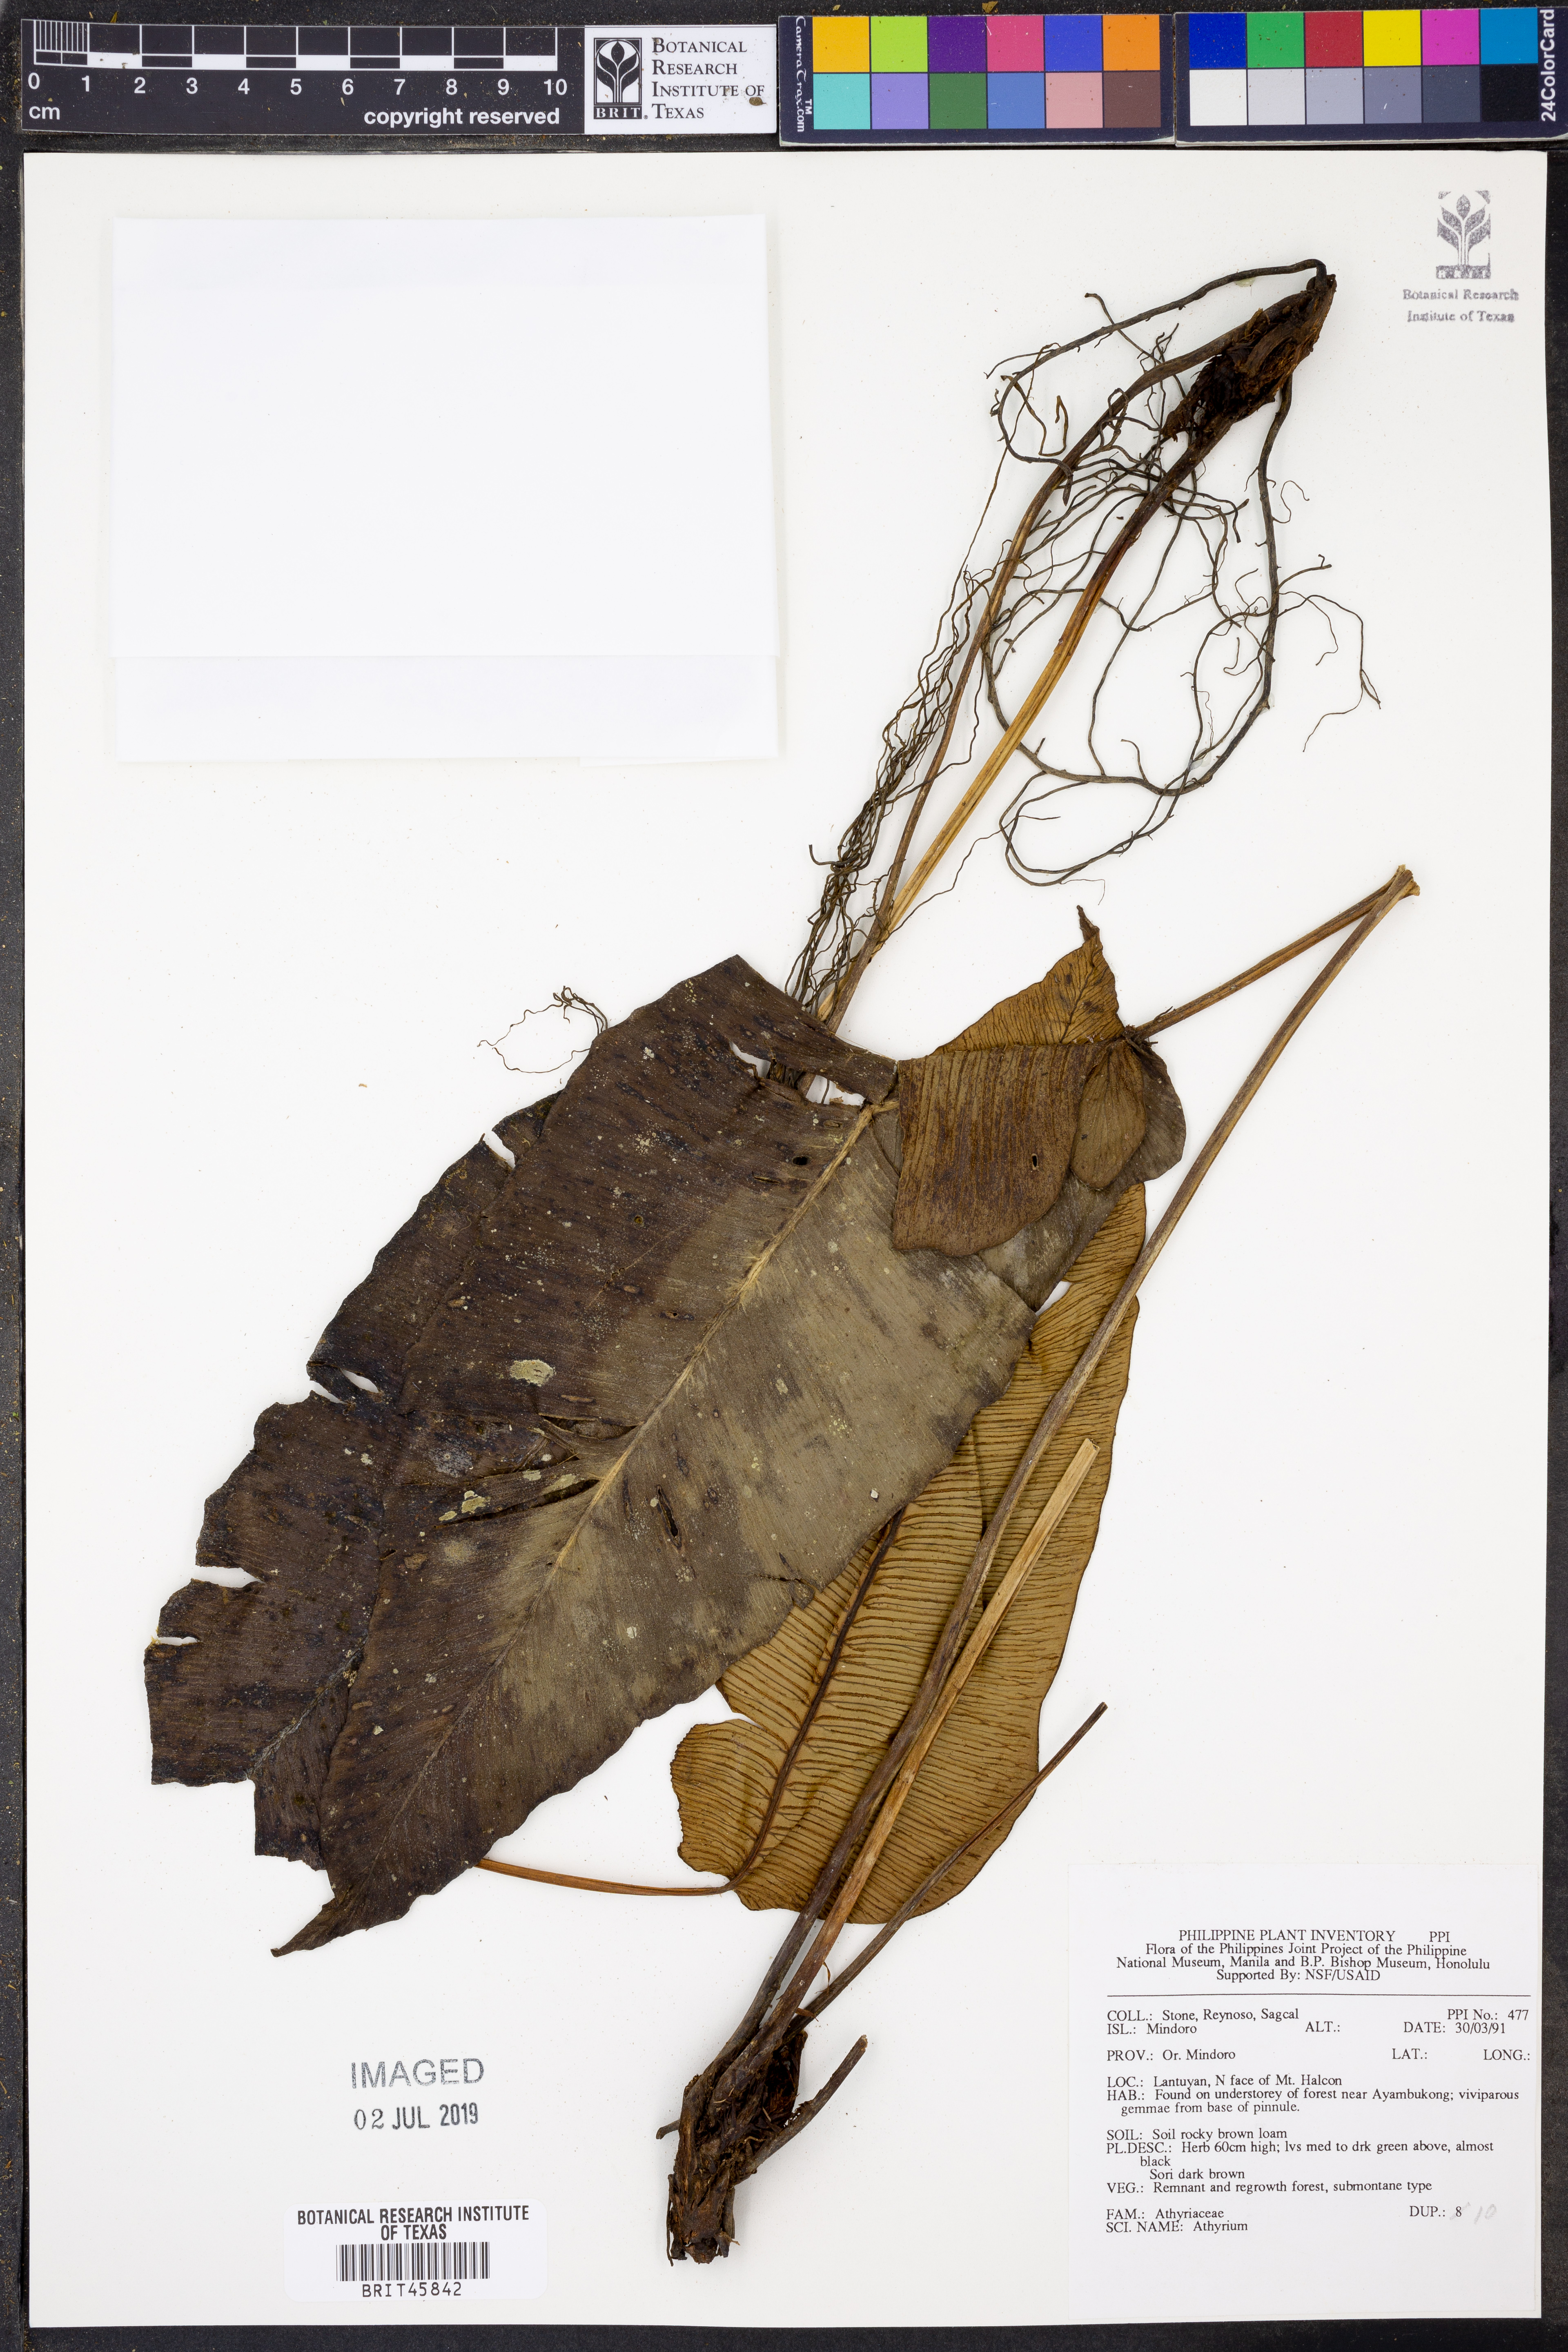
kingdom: Plantae
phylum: Tracheophyta
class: Polypodiopsida
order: Polypodiales
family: Athyriaceae
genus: Athyrium
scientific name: Athyrium
